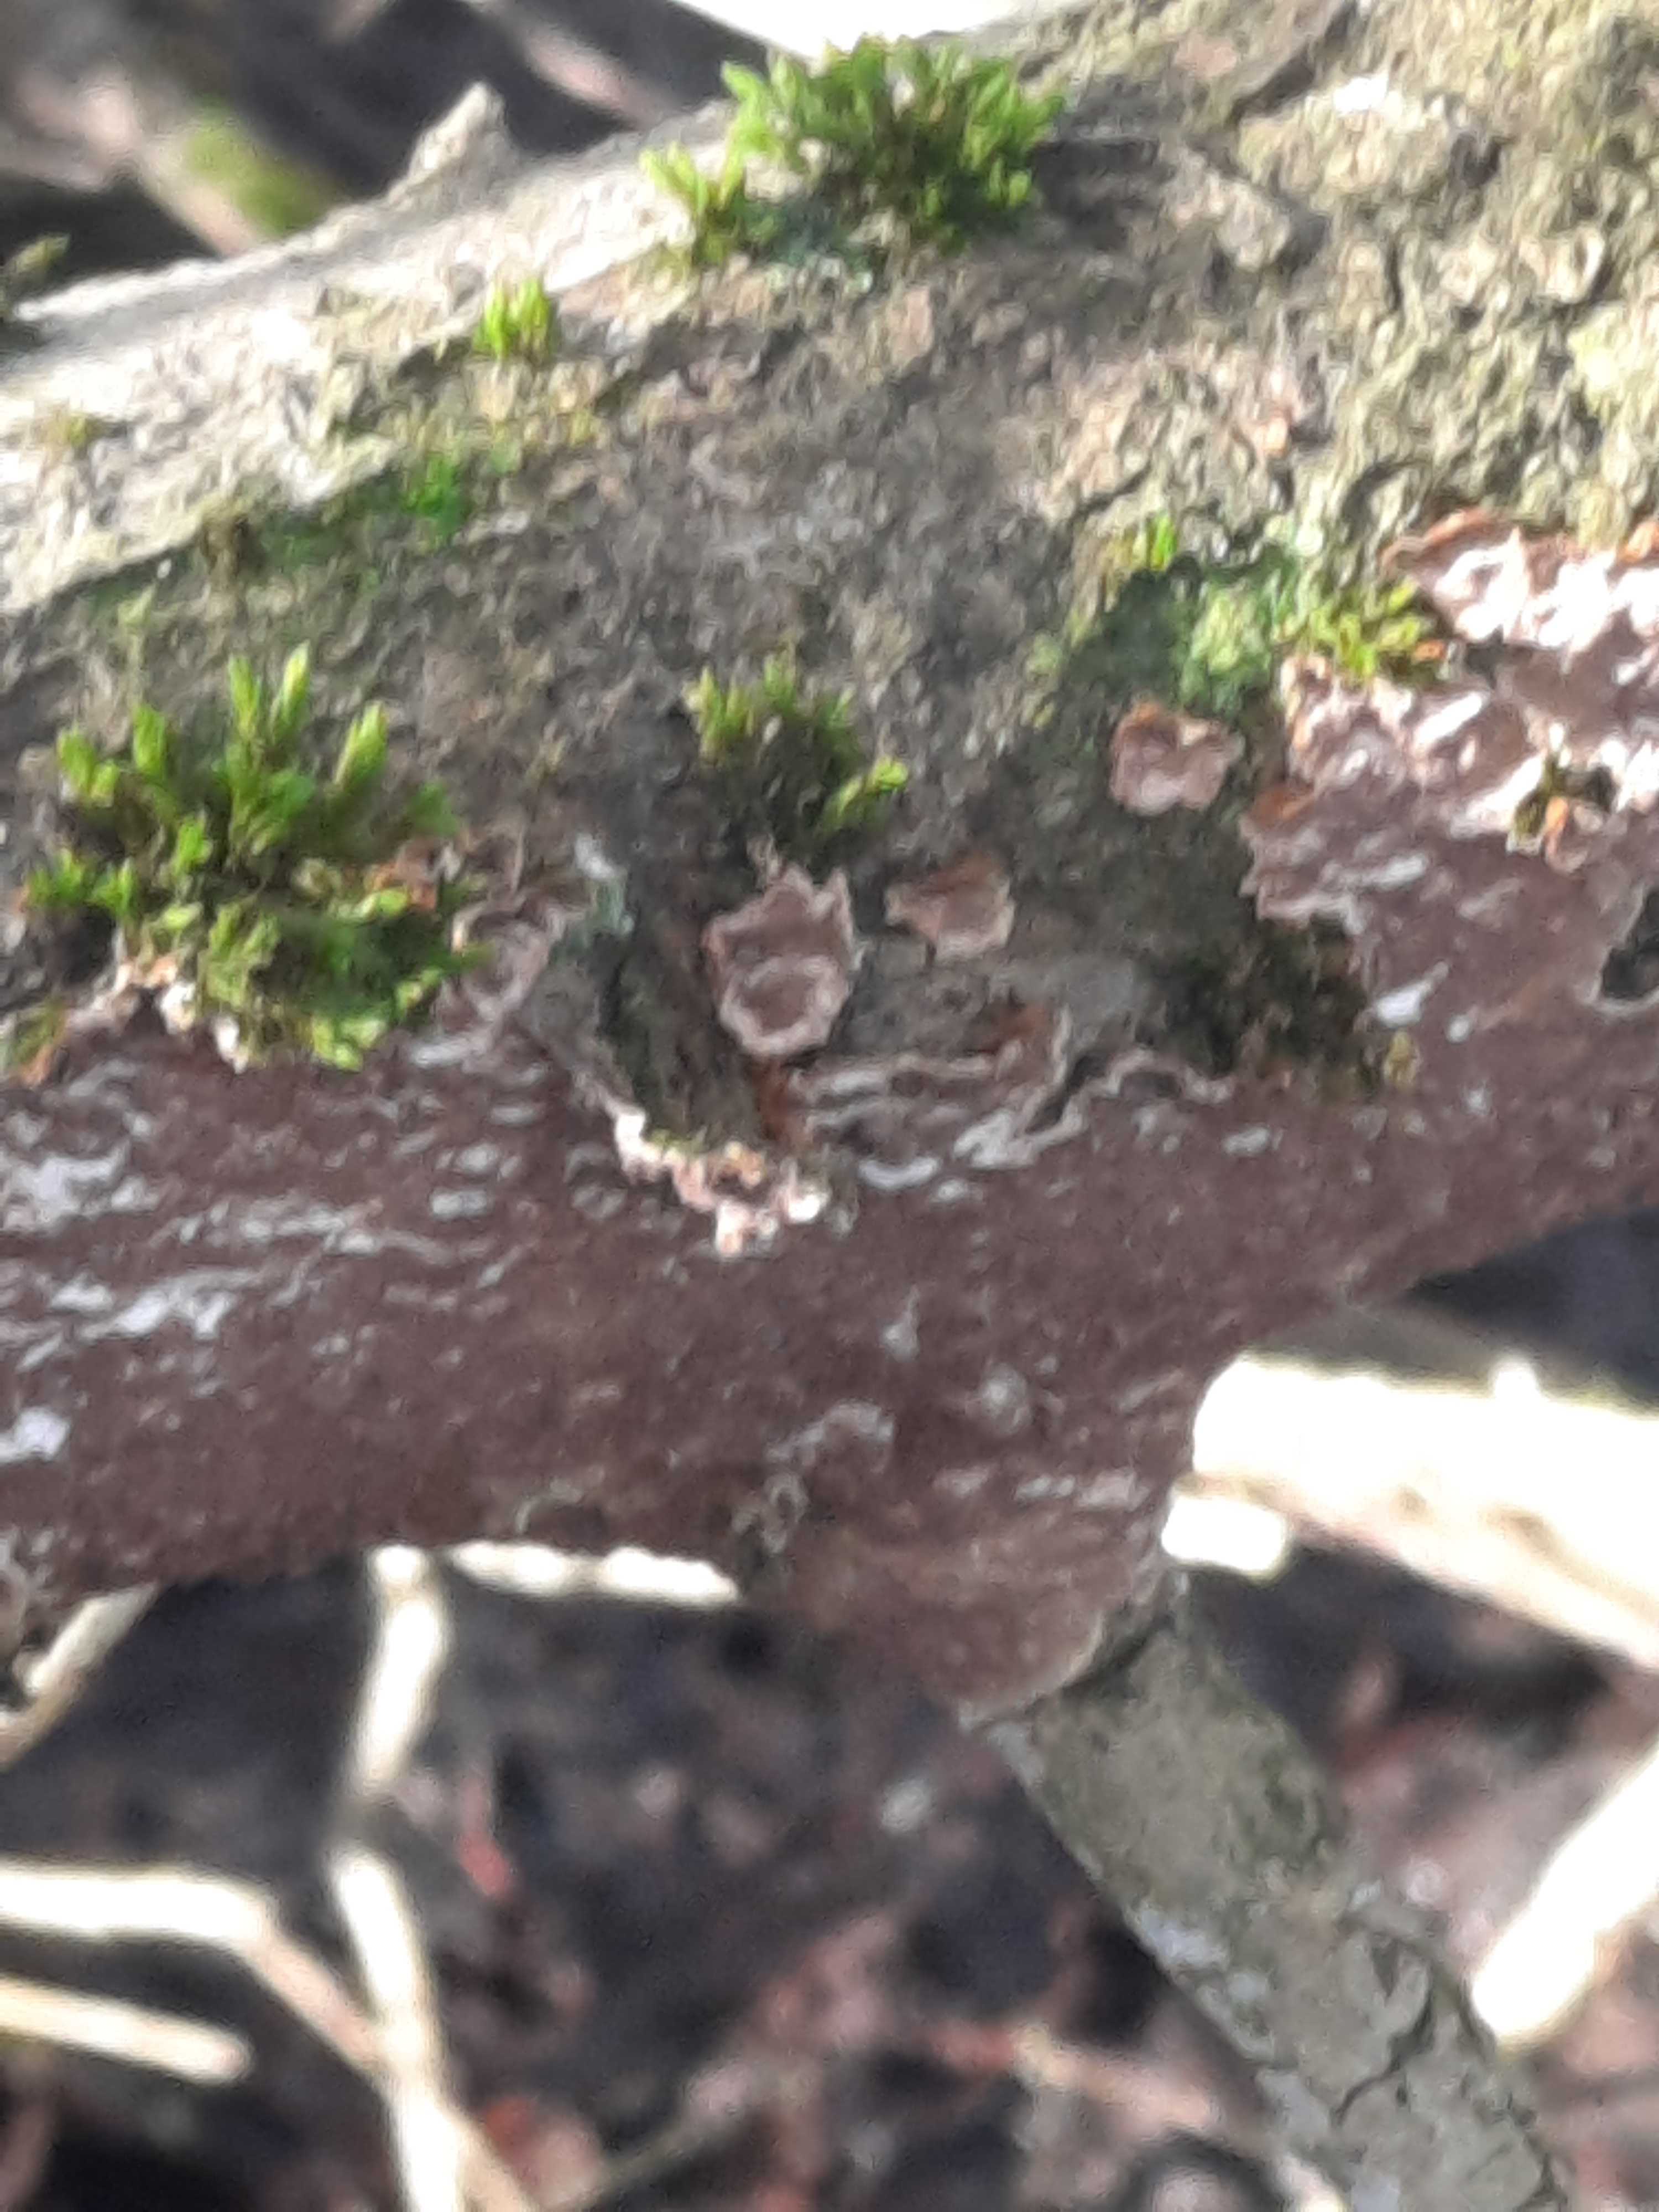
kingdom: Fungi
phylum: Basidiomycota
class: Agaricomycetes
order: Agaricales
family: Cyphellaceae
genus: Chondrostereum
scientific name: Chondrostereum purpureum
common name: purpurlædersvamp
